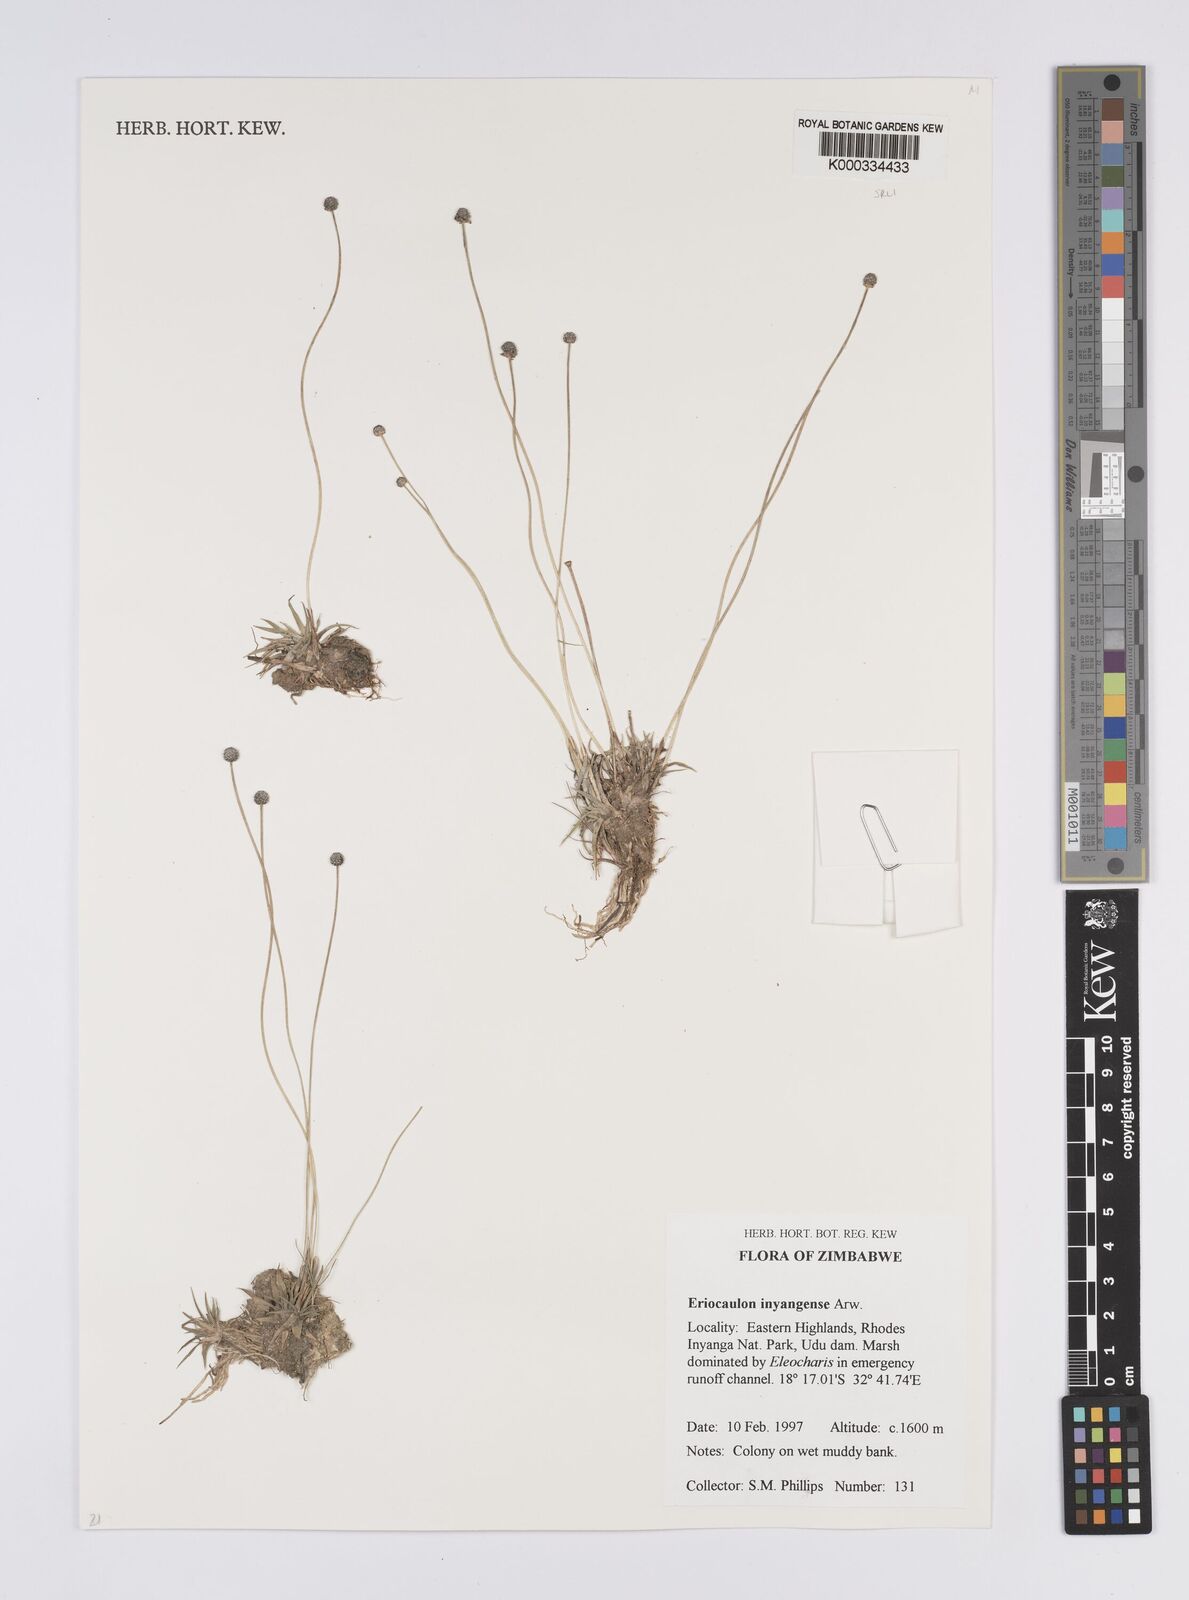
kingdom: Plantae
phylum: Tracheophyta
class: Liliopsida
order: Poales
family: Eriocaulaceae
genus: Eriocaulon
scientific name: Eriocaulon inyangense
